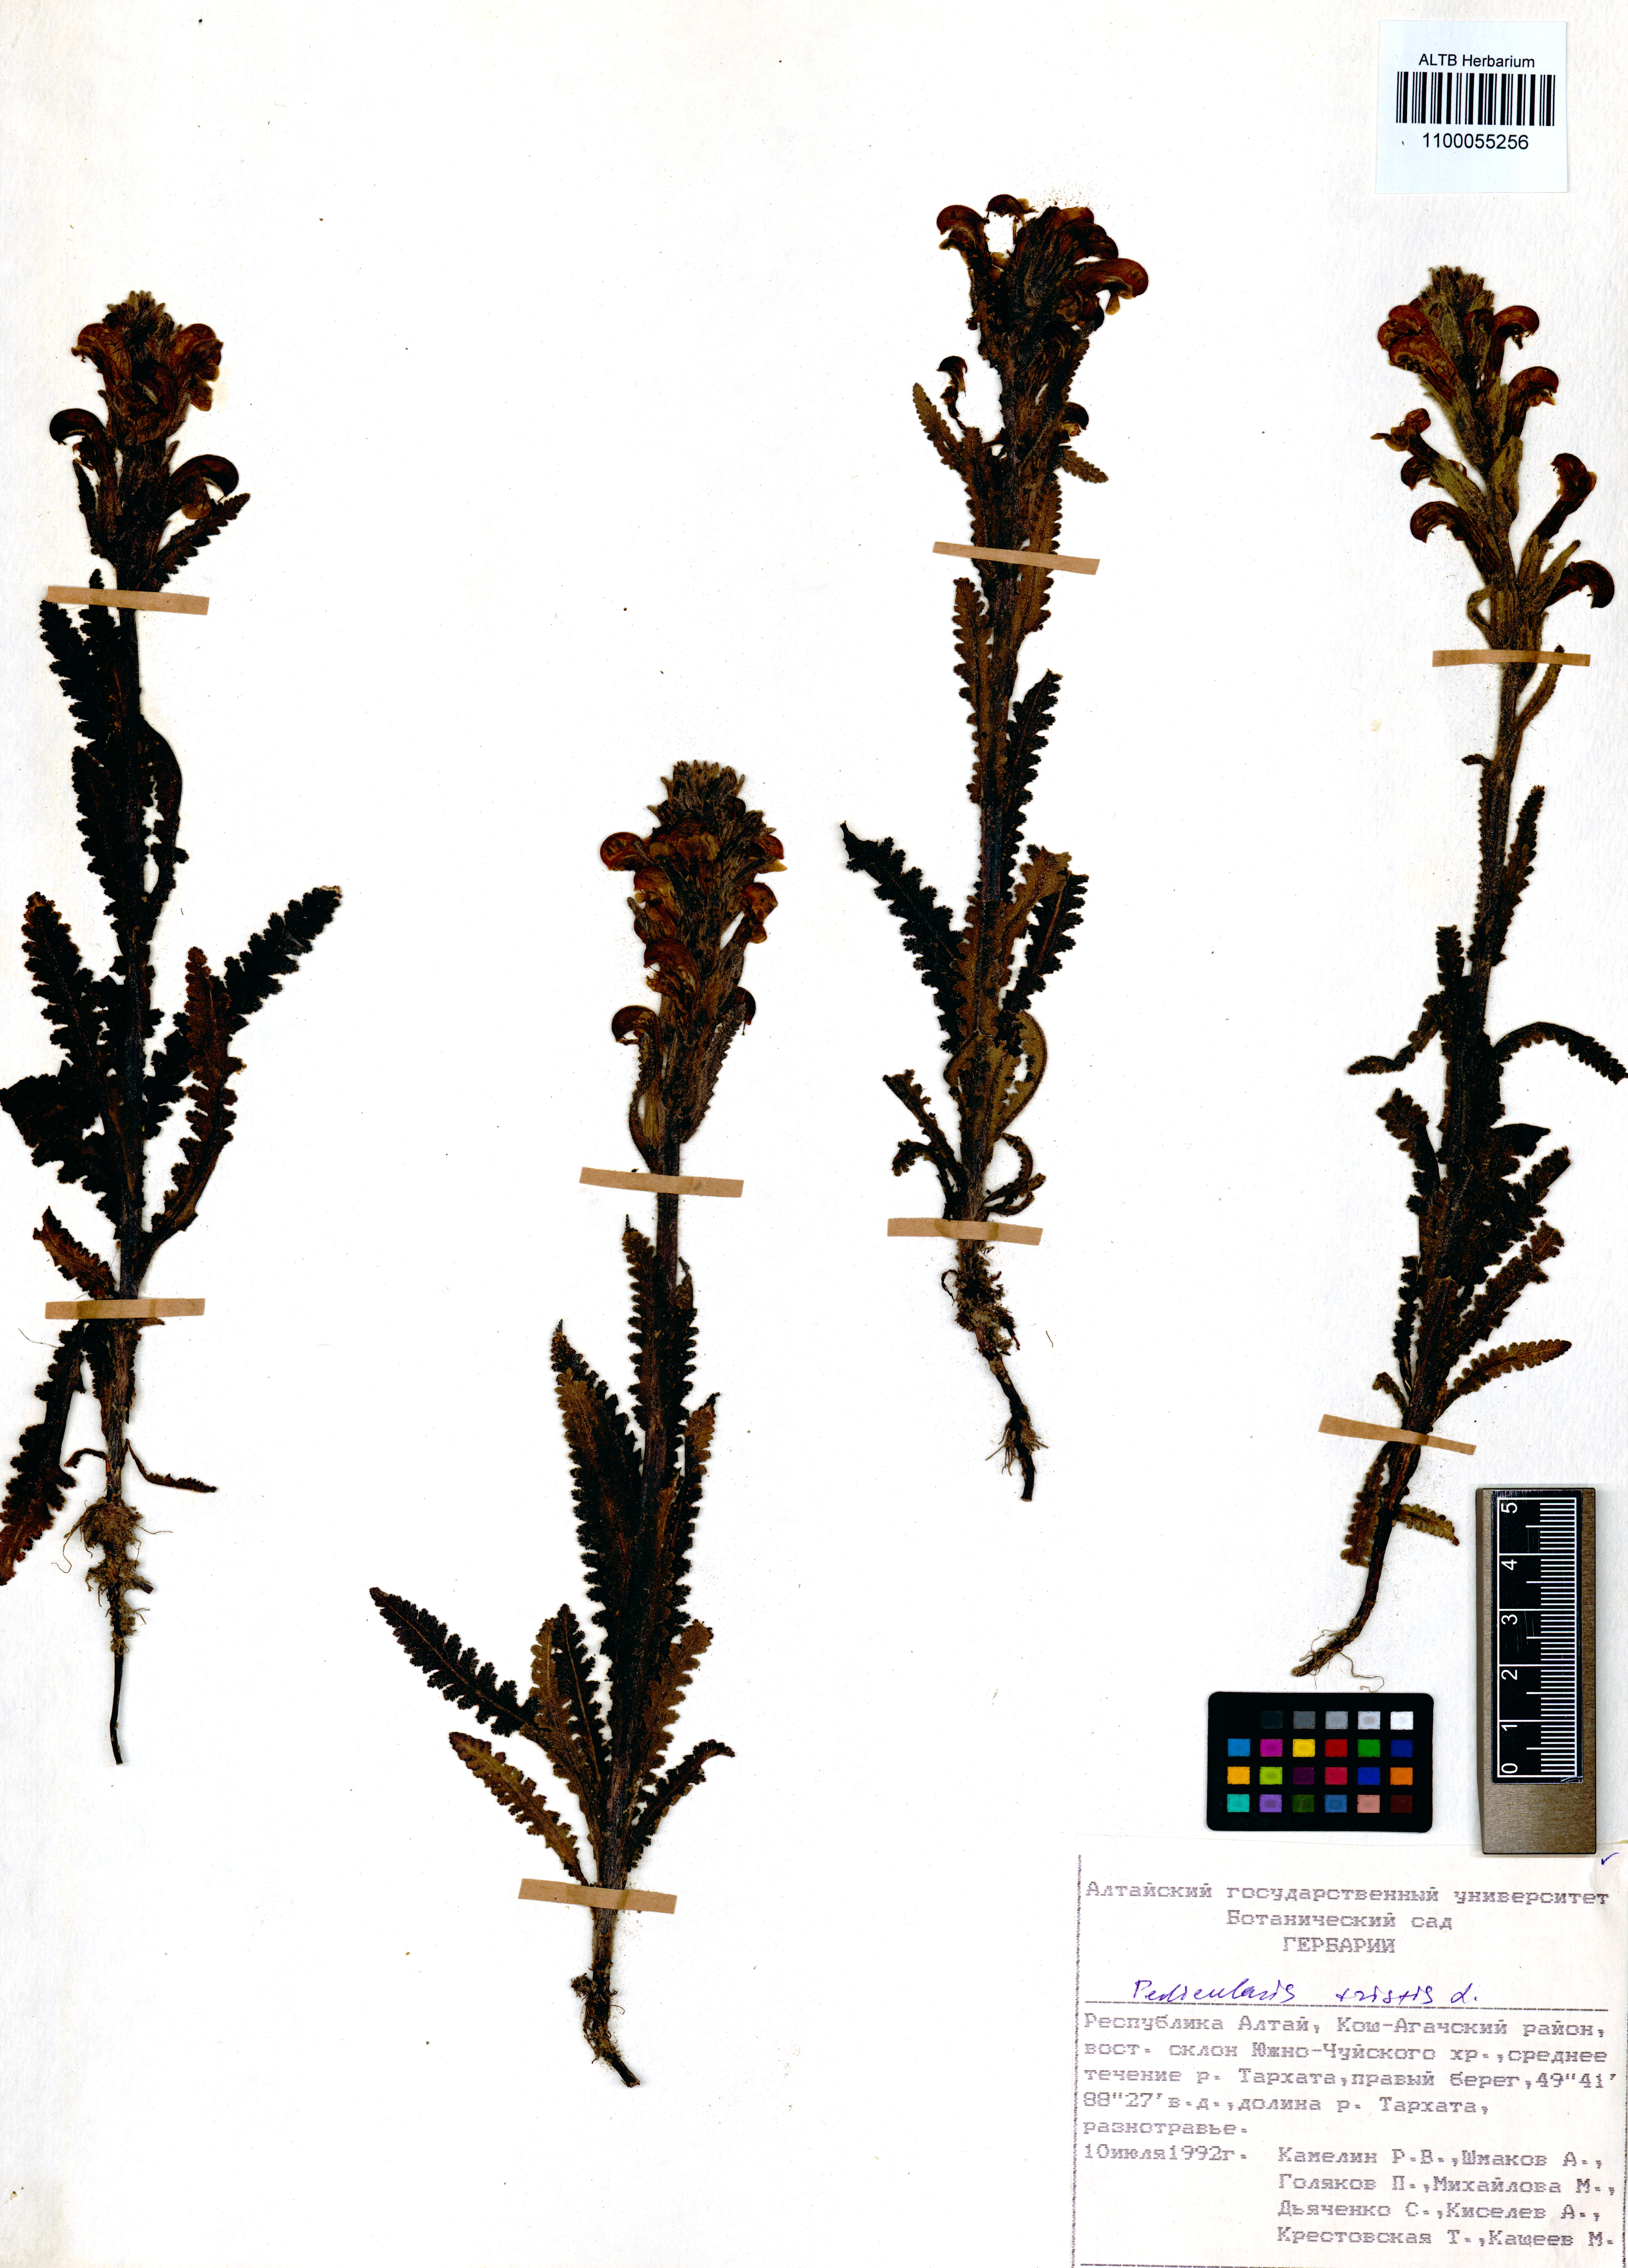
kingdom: Plantae
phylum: Tracheophyta
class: Magnoliopsida
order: Lamiales
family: Orobanchaceae
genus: Pedicularis
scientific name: Pedicularis tristis
